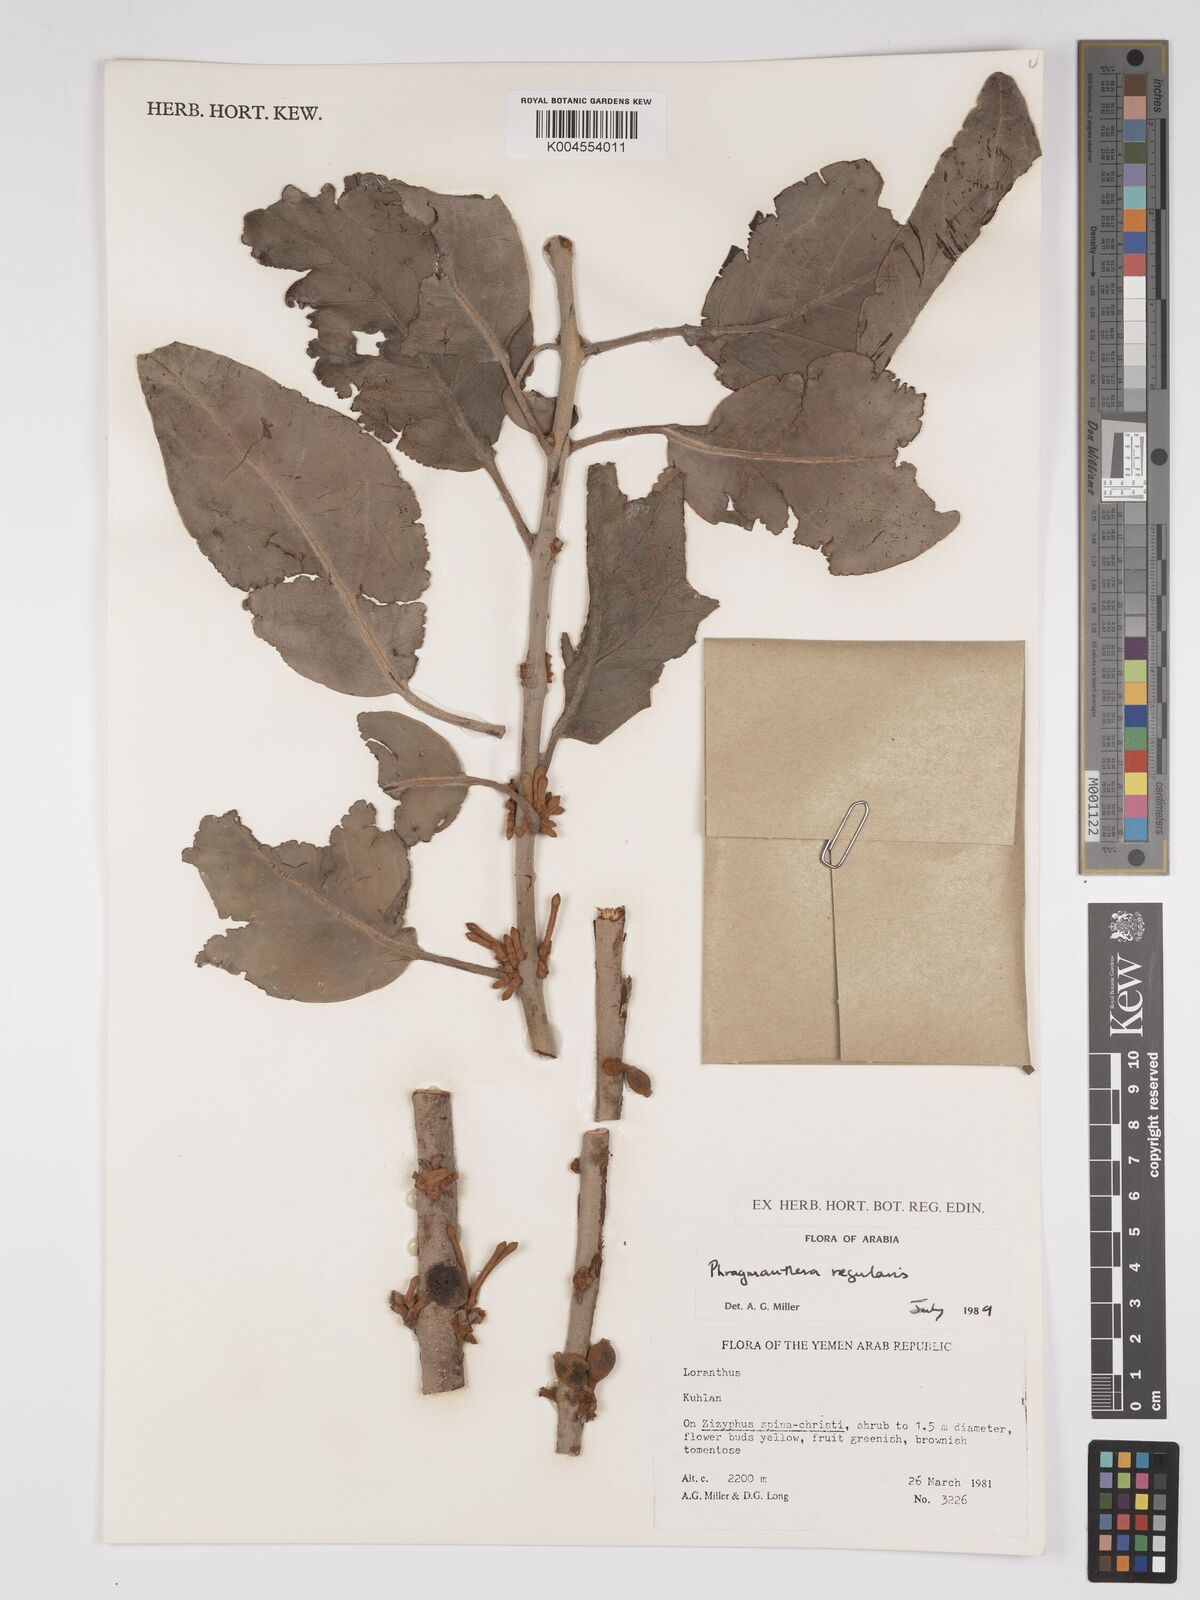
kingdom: Plantae
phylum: Tracheophyta
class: Magnoliopsida
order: Santalales
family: Loranthaceae
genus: Phragmanthera
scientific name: Phragmanthera regularis
